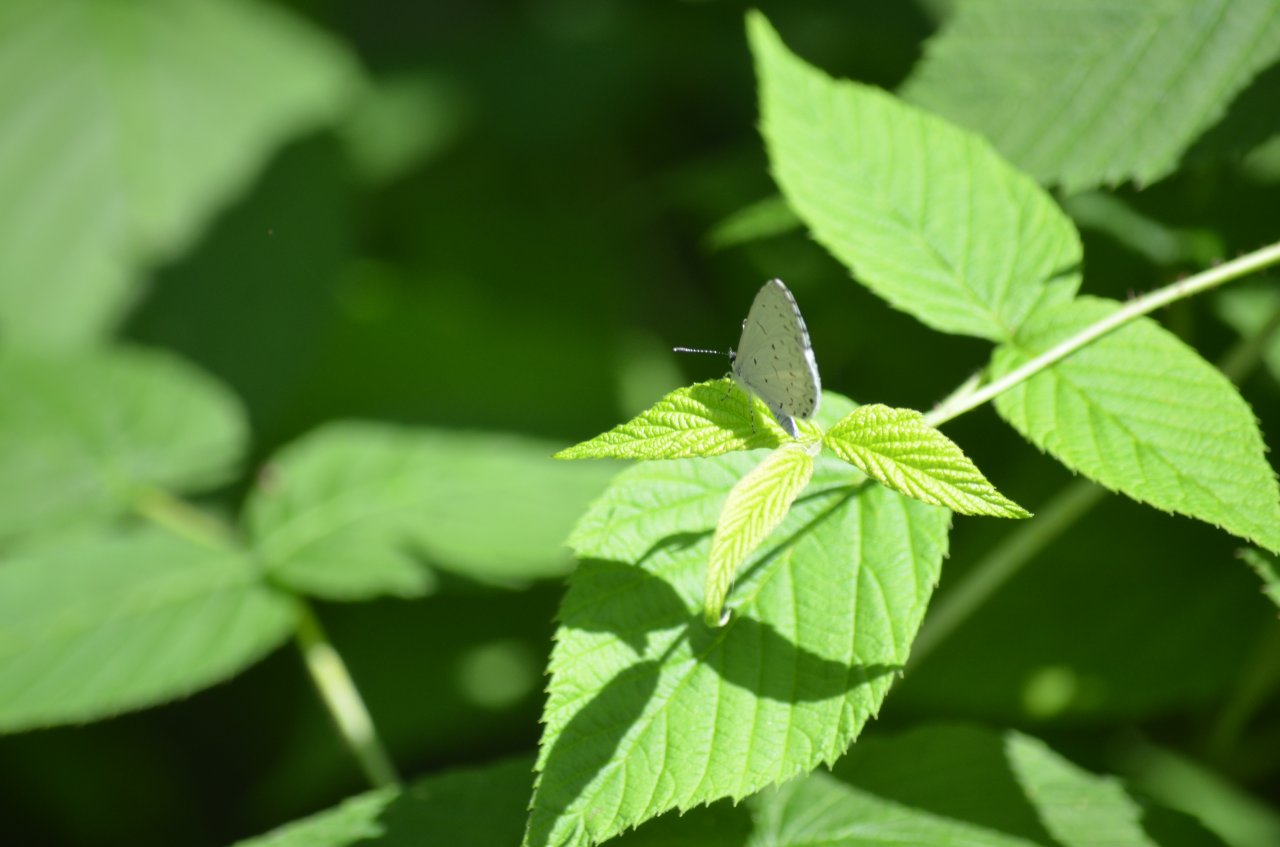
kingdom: Animalia
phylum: Arthropoda
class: Insecta
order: Lepidoptera
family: Lycaenidae
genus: Celastrina
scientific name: Celastrina
